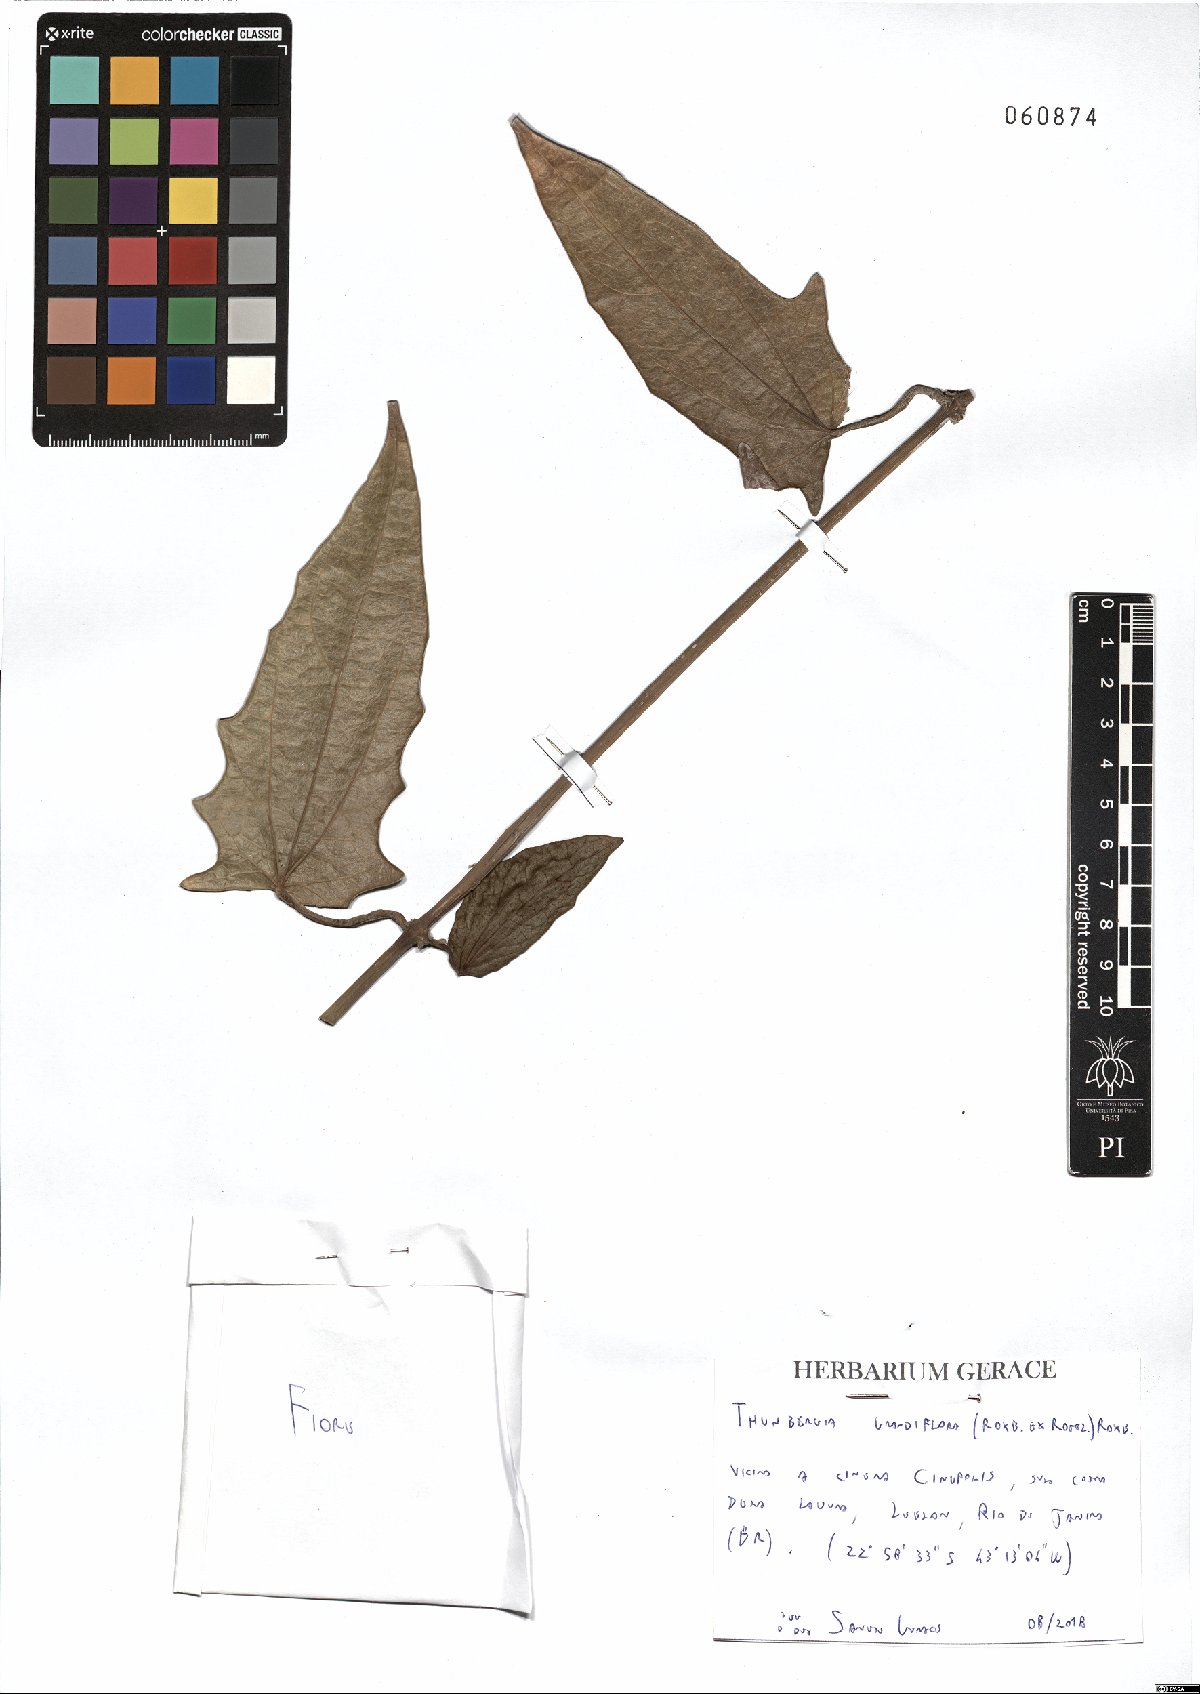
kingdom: Plantae
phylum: Tracheophyta
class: Magnoliopsida
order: Lamiales
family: Acanthaceae
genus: Thunbergia
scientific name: Thunbergia grandiflora
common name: Bengal trumpet
